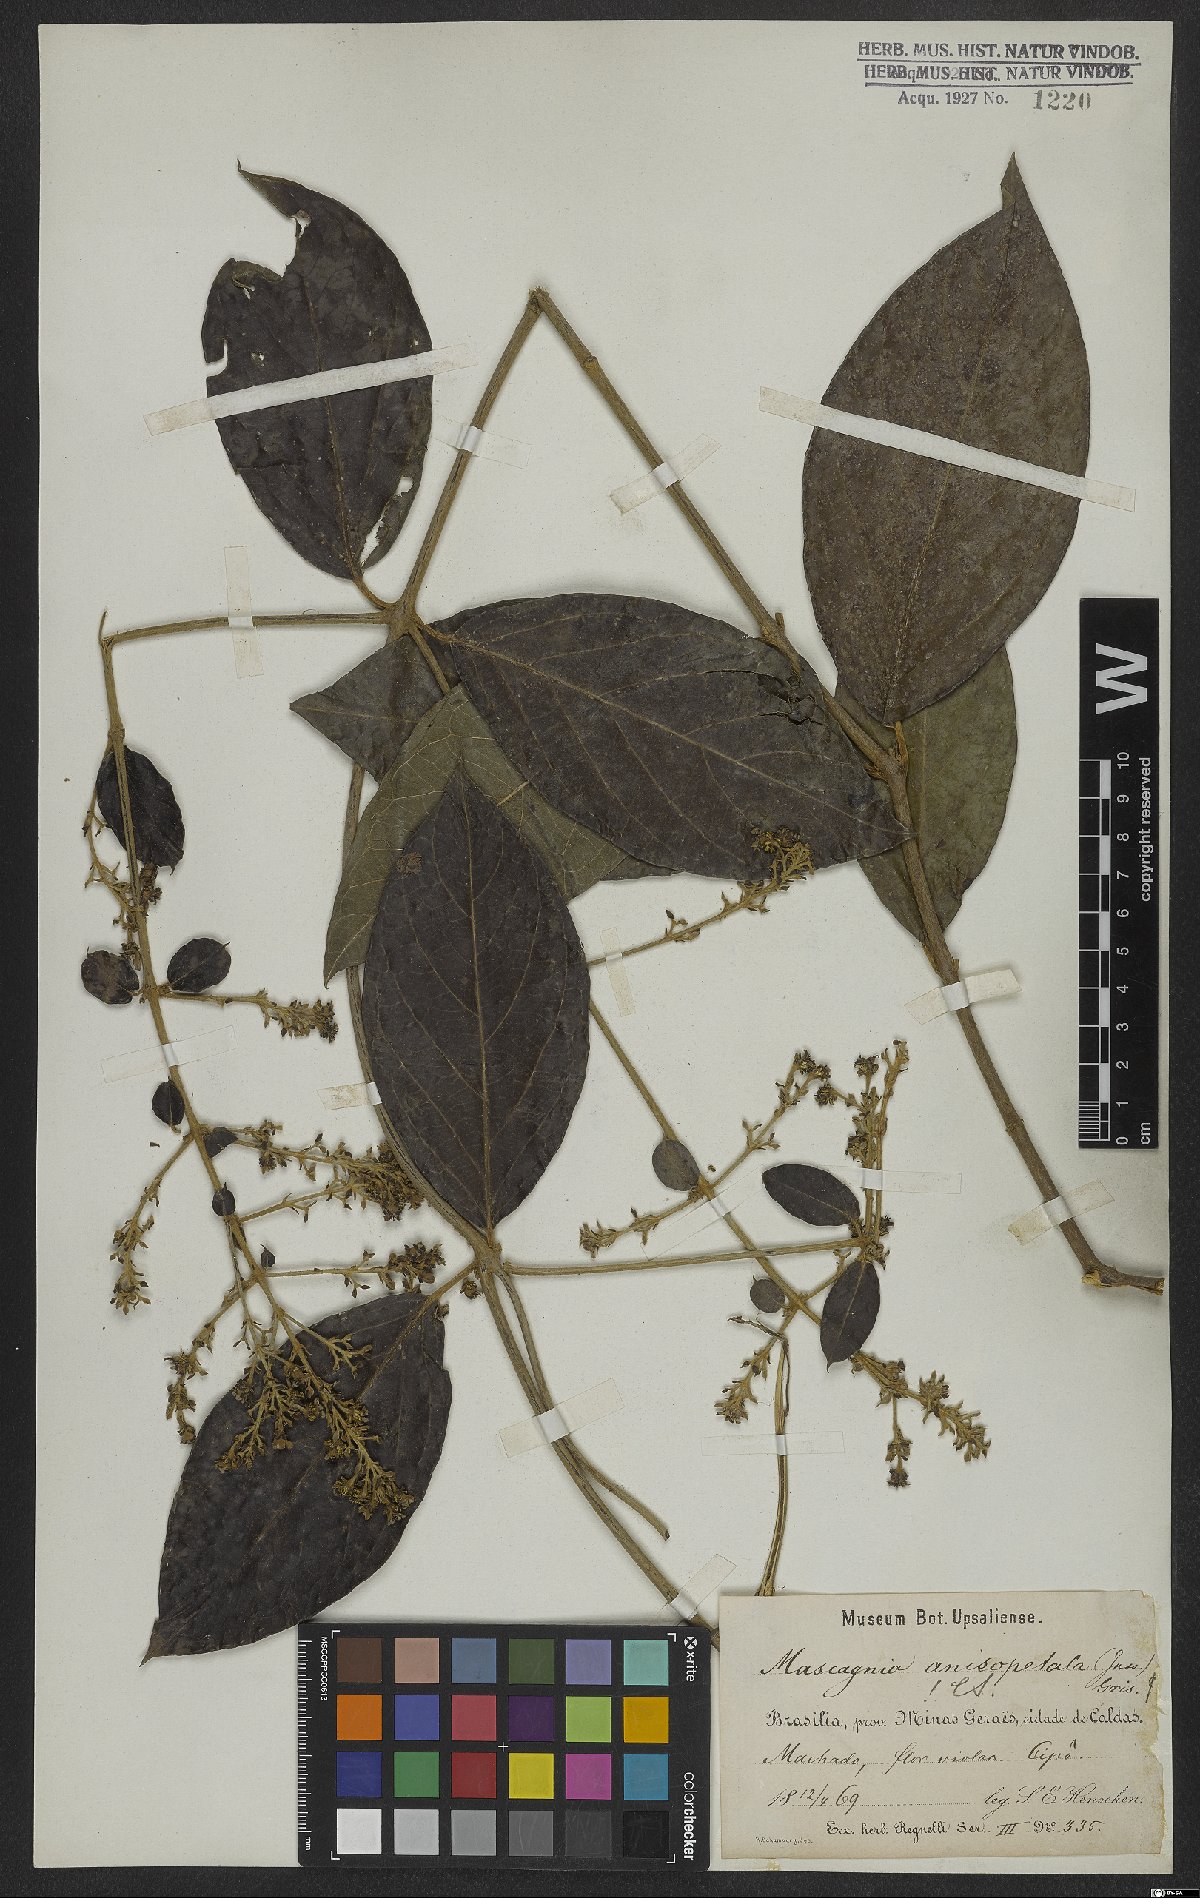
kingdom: Plantae
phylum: Tracheophyta
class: Magnoliopsida
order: Malpighiales
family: Malpighiaceae
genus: Alicia
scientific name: Alicia anisopetala
